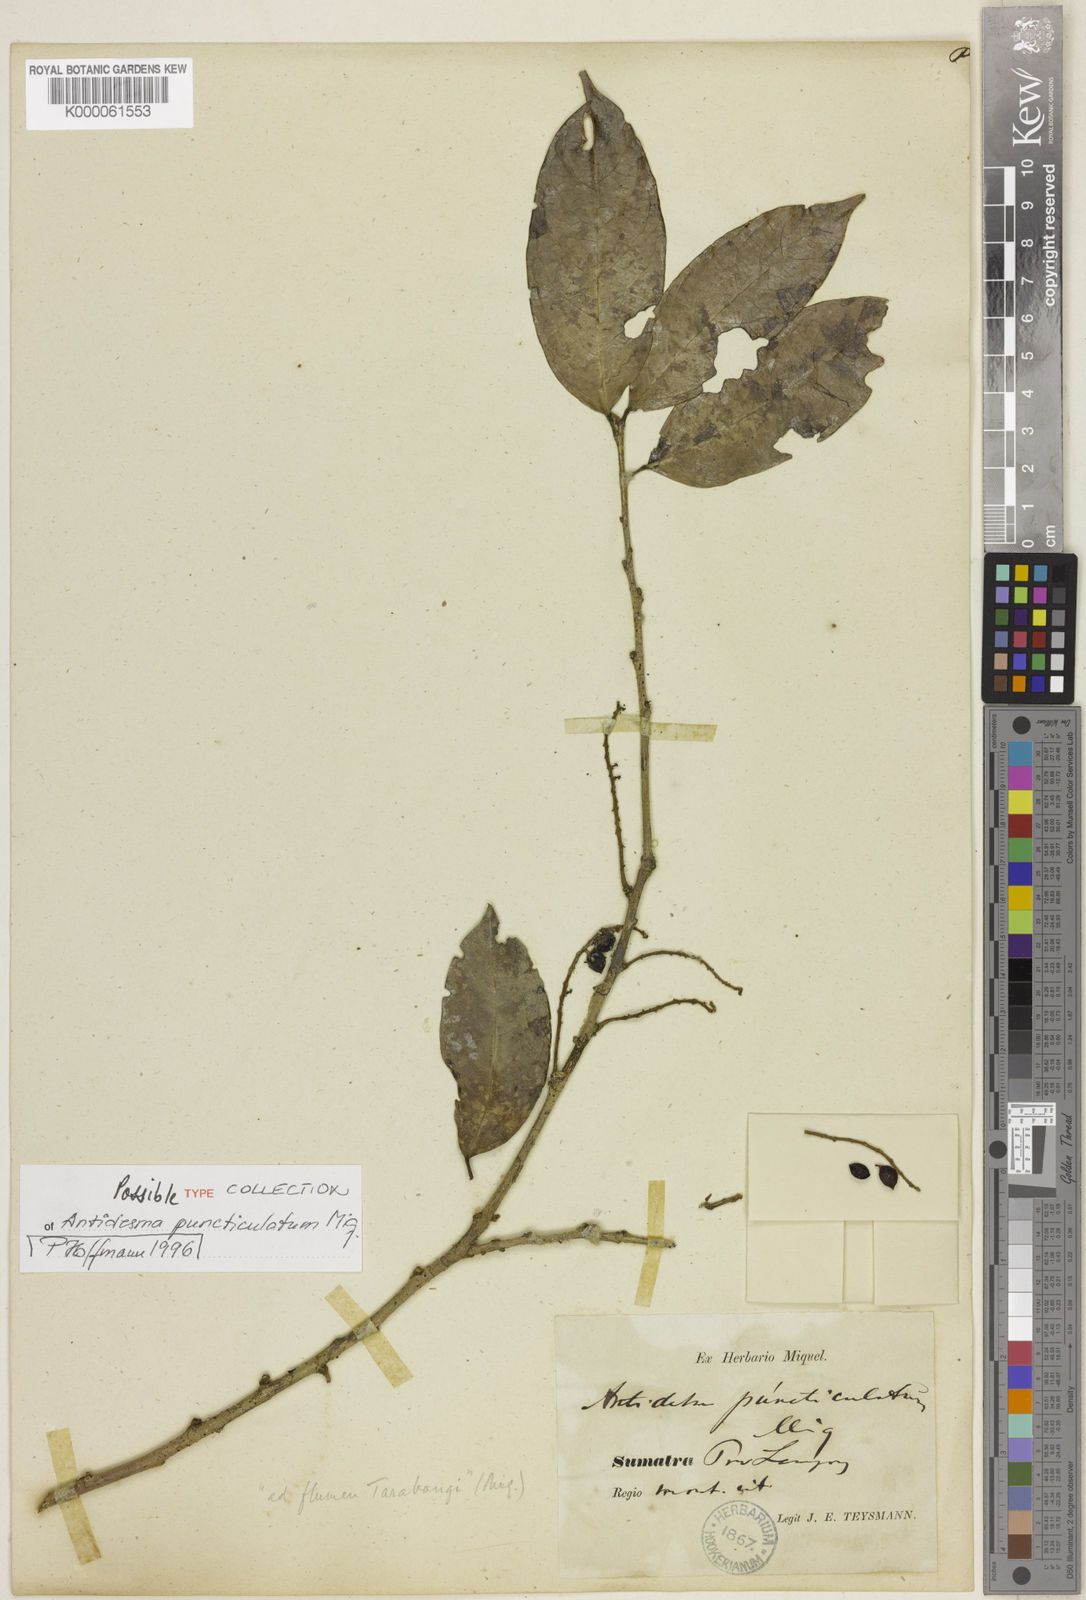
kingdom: Plantae
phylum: Tracheophyta
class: Magnoliopsida
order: Malpighiales
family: Phyllanthaceae
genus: Antidesma
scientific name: Antidesma puncticulatum
